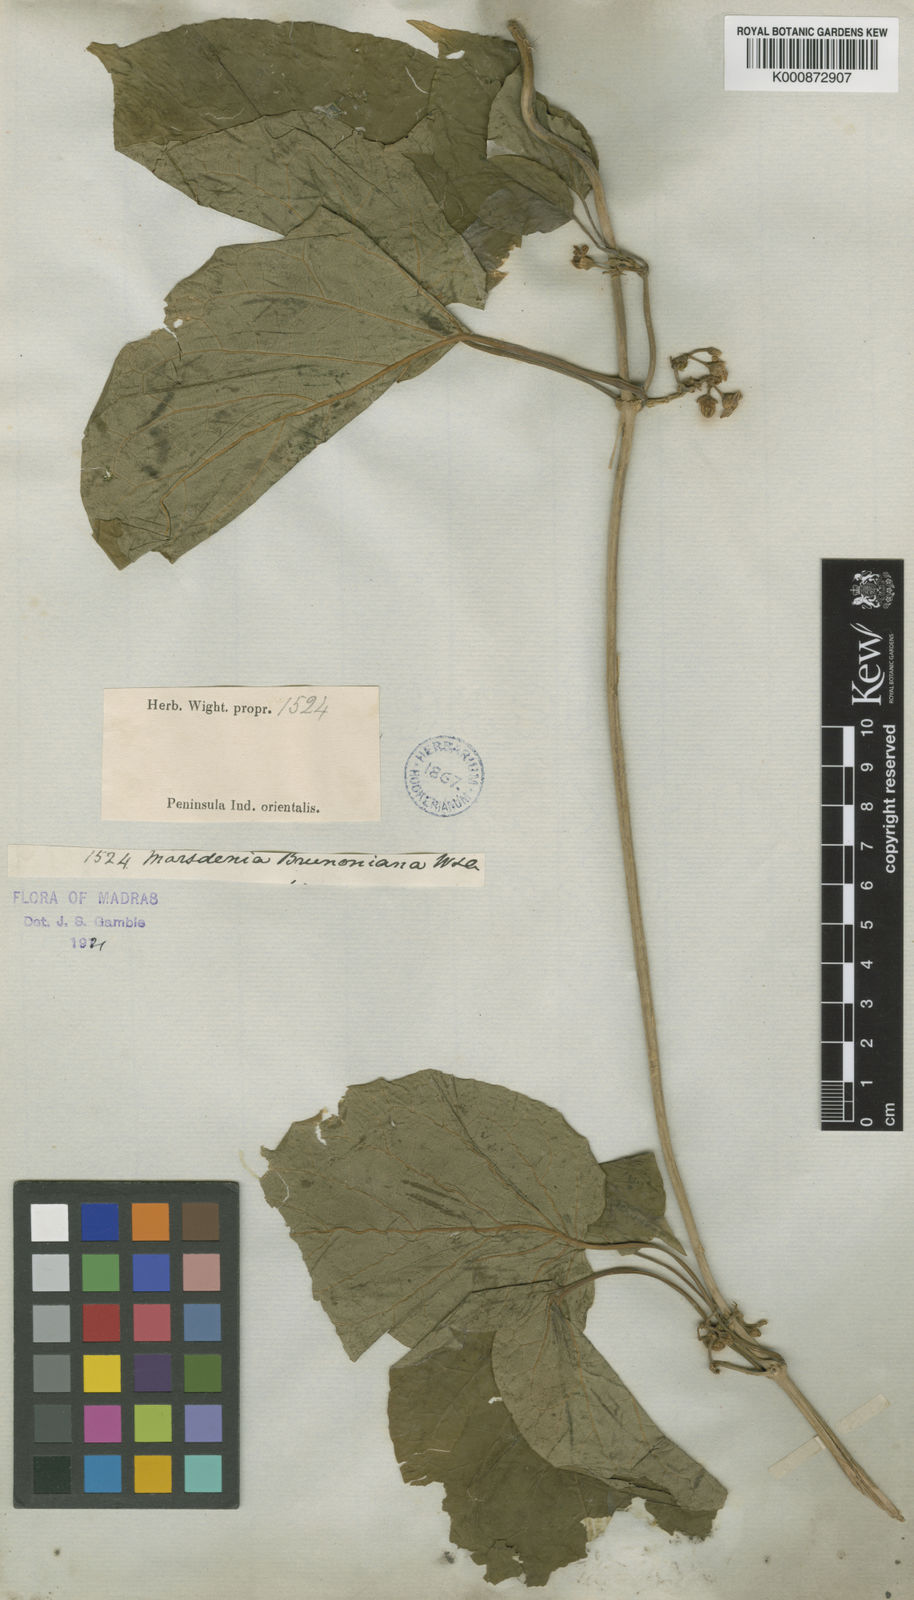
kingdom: Plantae
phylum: Tracheophyta
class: Magnoliopsida
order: Gentianales
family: Apocynaceae
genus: Marsdenia
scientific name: Marsdenia brunoniana
